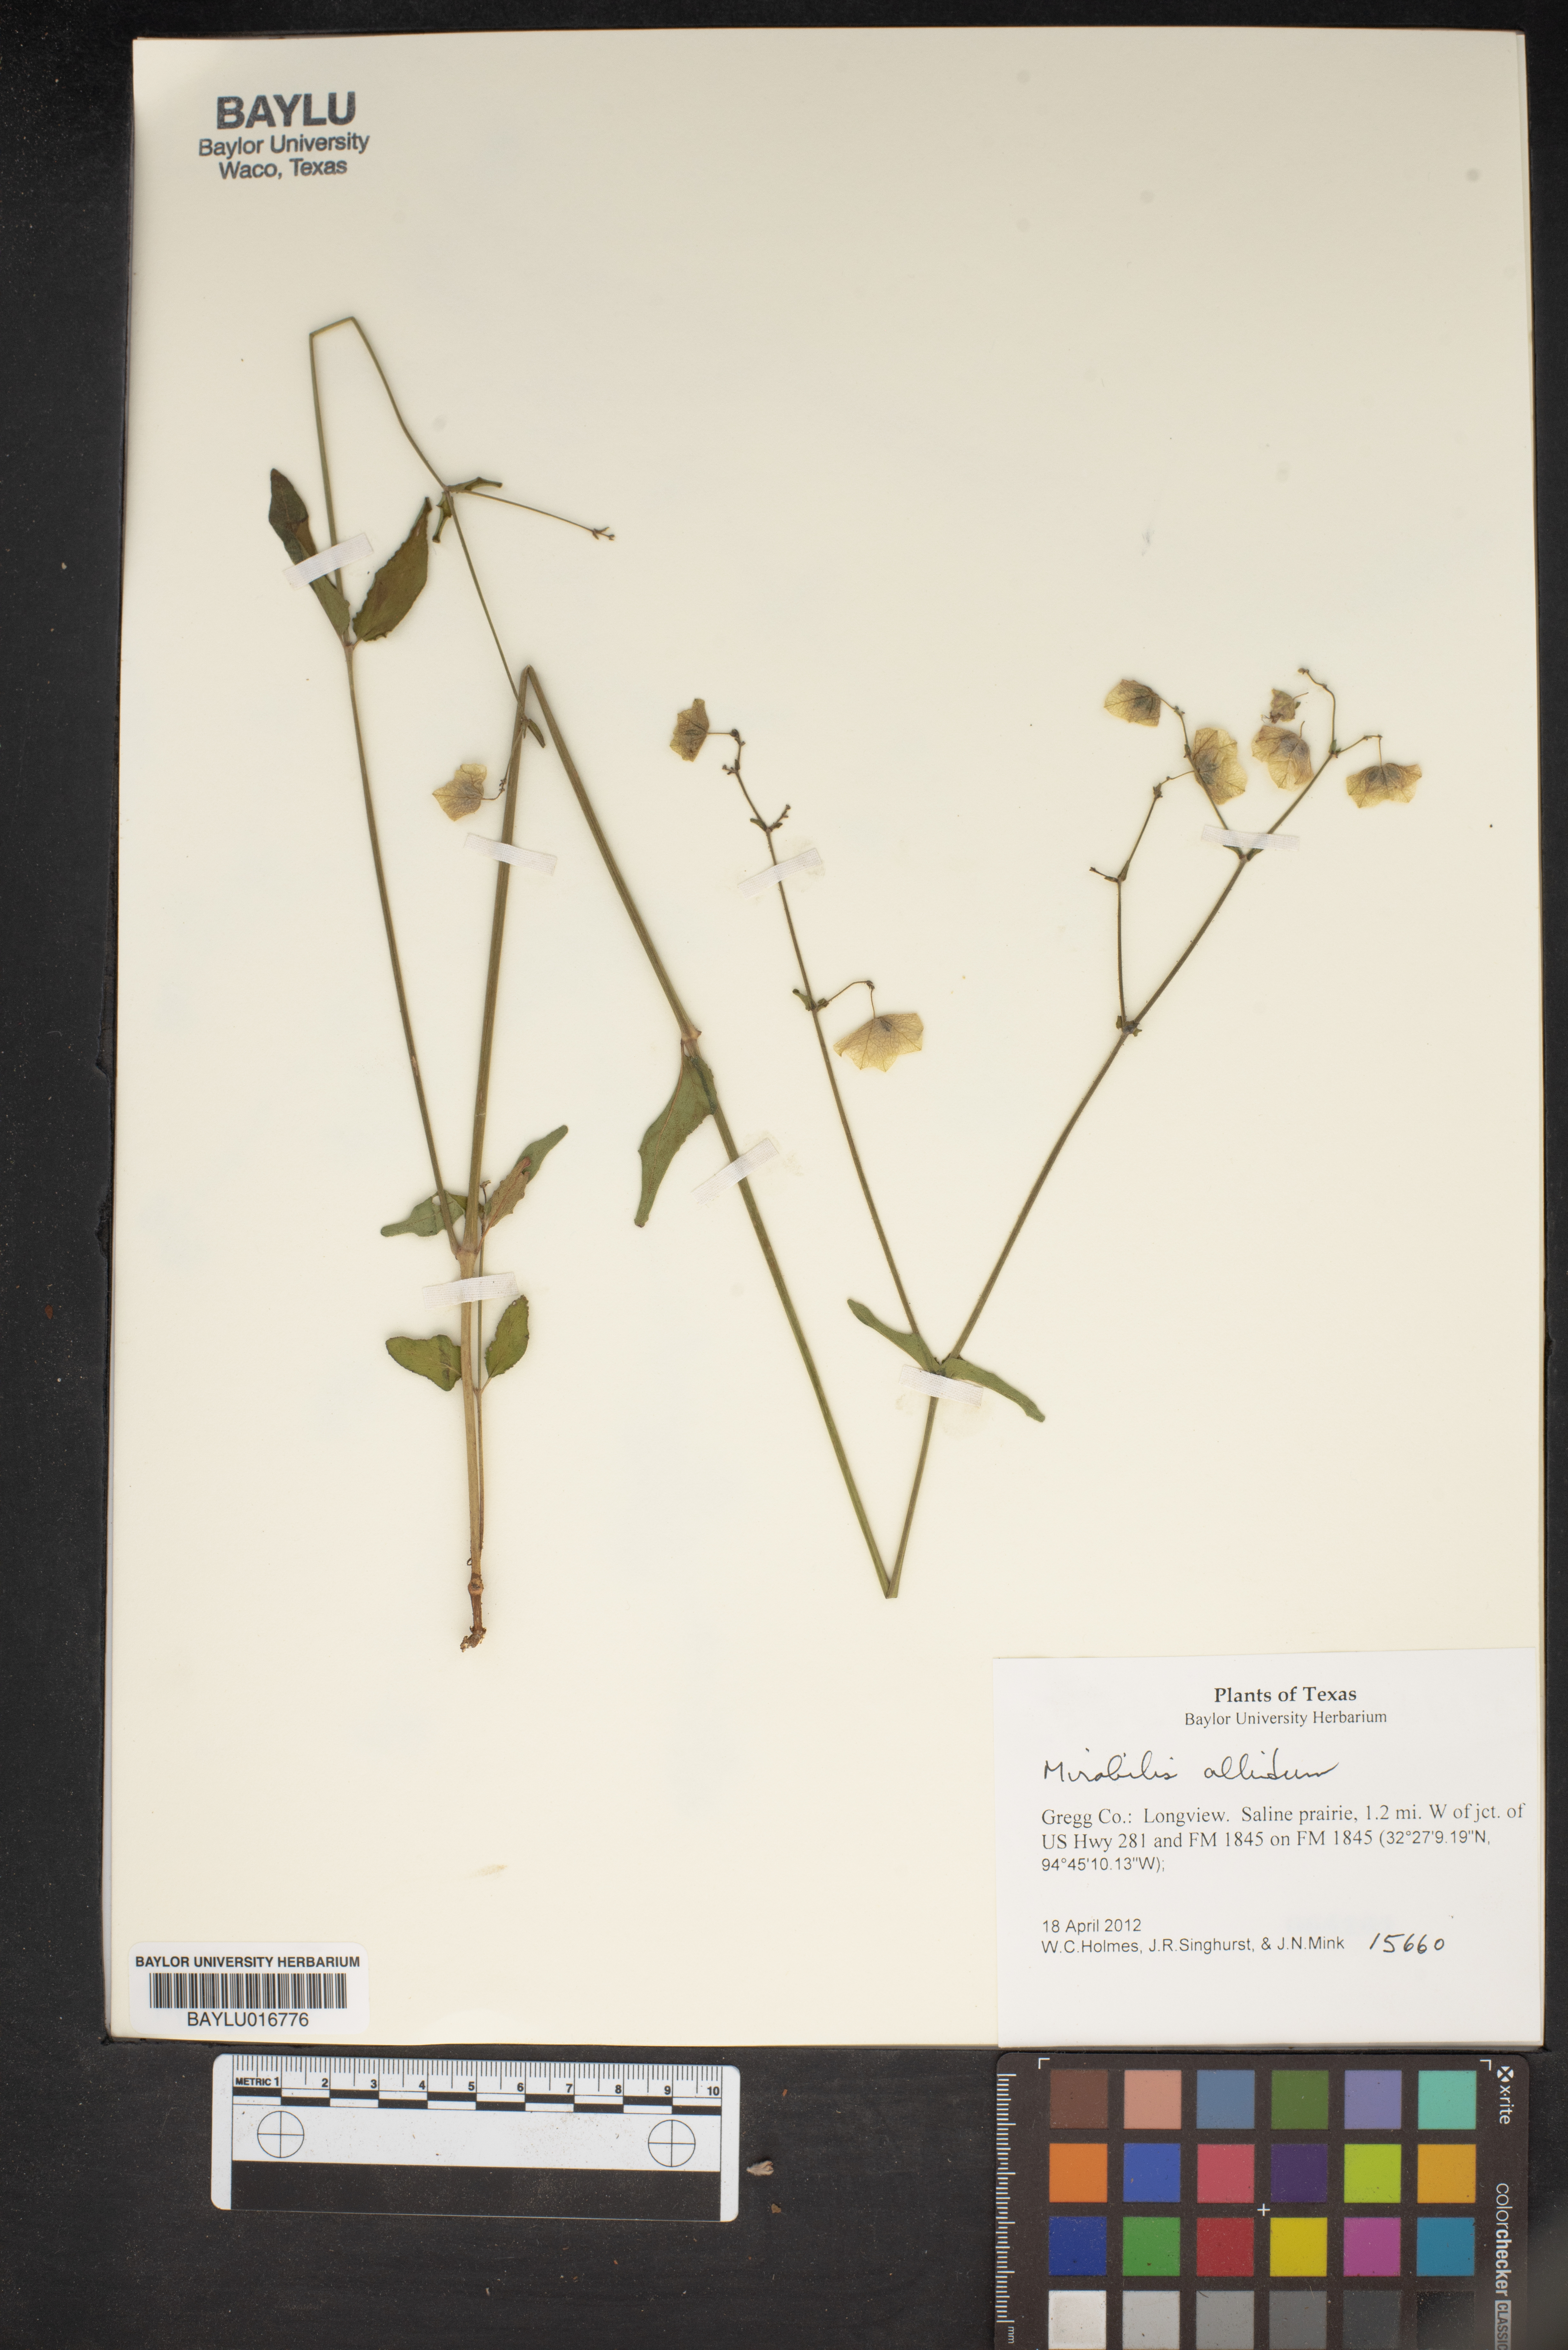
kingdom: Plantae
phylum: Tracheophyta
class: Magnoliopsida
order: Caryophyllales
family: Nyctaginaceae
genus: Mirabilis
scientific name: Mirabilis albida
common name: Hairy four-o'clock
